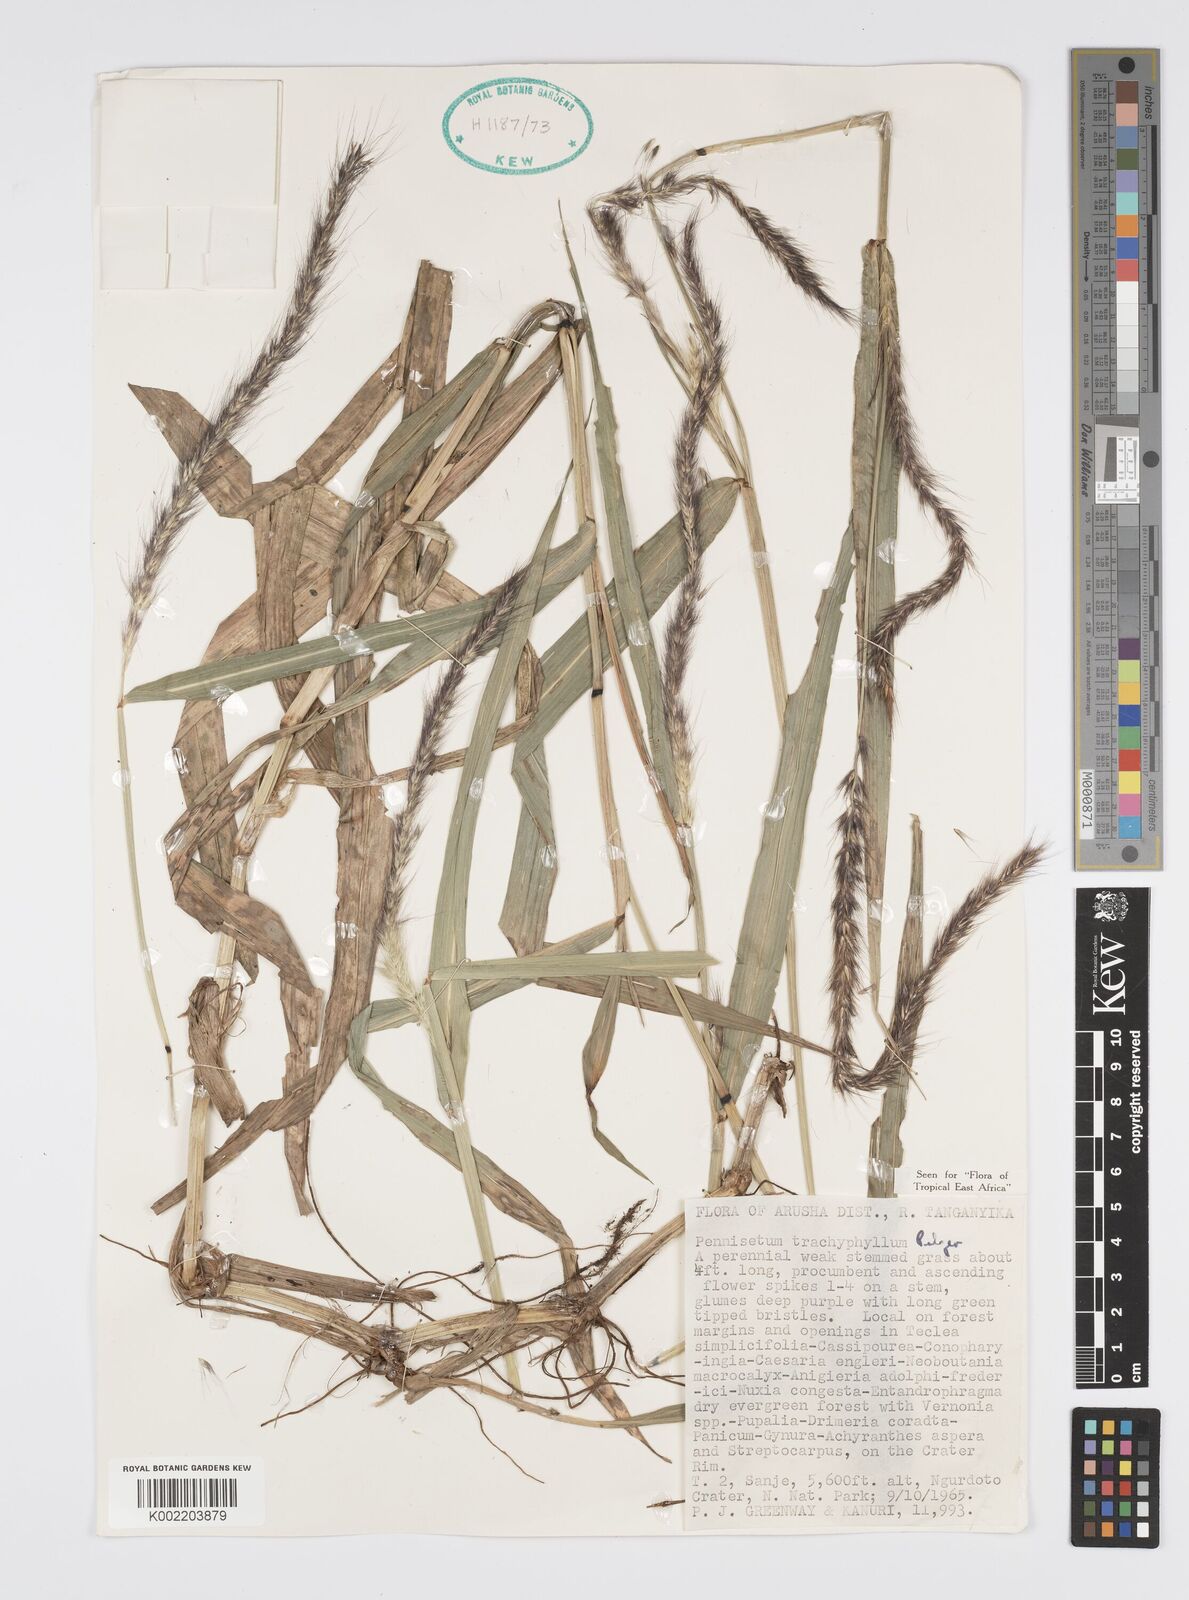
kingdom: Plantae
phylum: Tracheophyta
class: Liliopsida
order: Poales
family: Poaceae
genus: Cenchrus
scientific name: Cenchrus trachyphyllus
